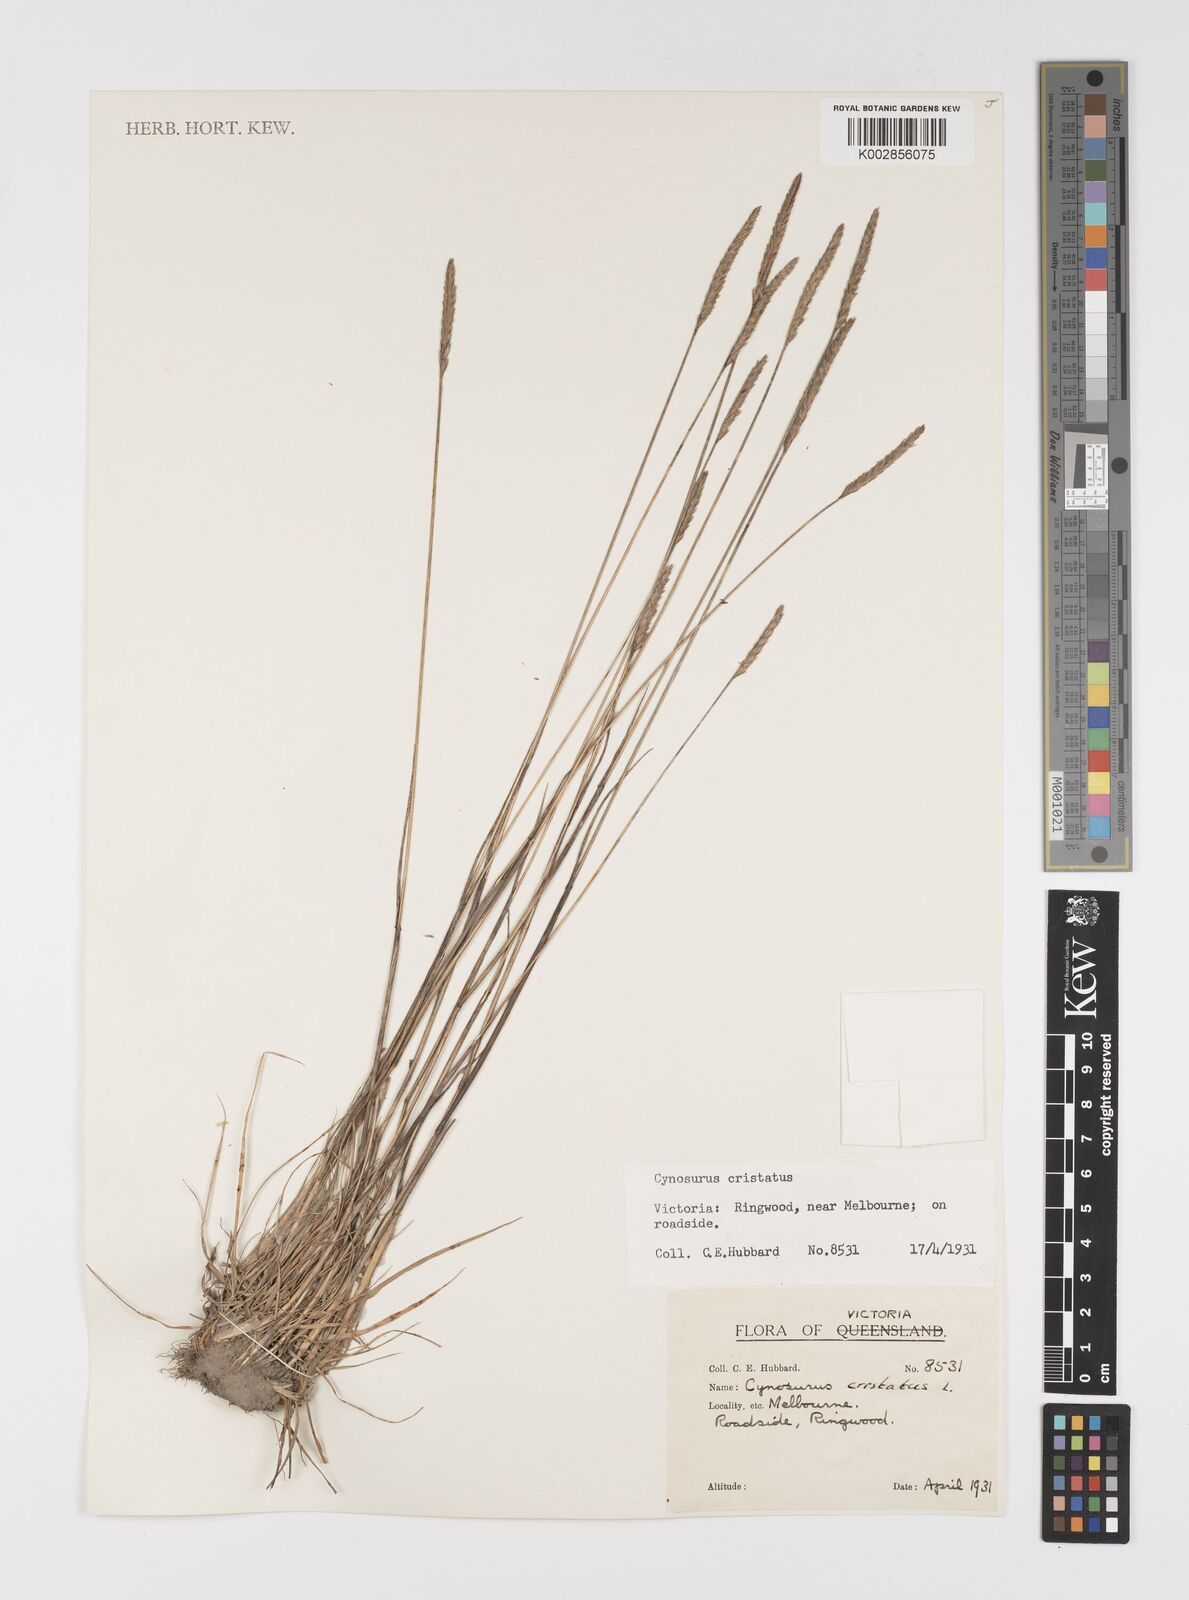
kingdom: Plantae
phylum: Tracheophyta
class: Liliopsida
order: Poales
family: Poaceae
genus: Cynosurus
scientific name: Cynosurus cristatus
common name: Crested dog's-tail
